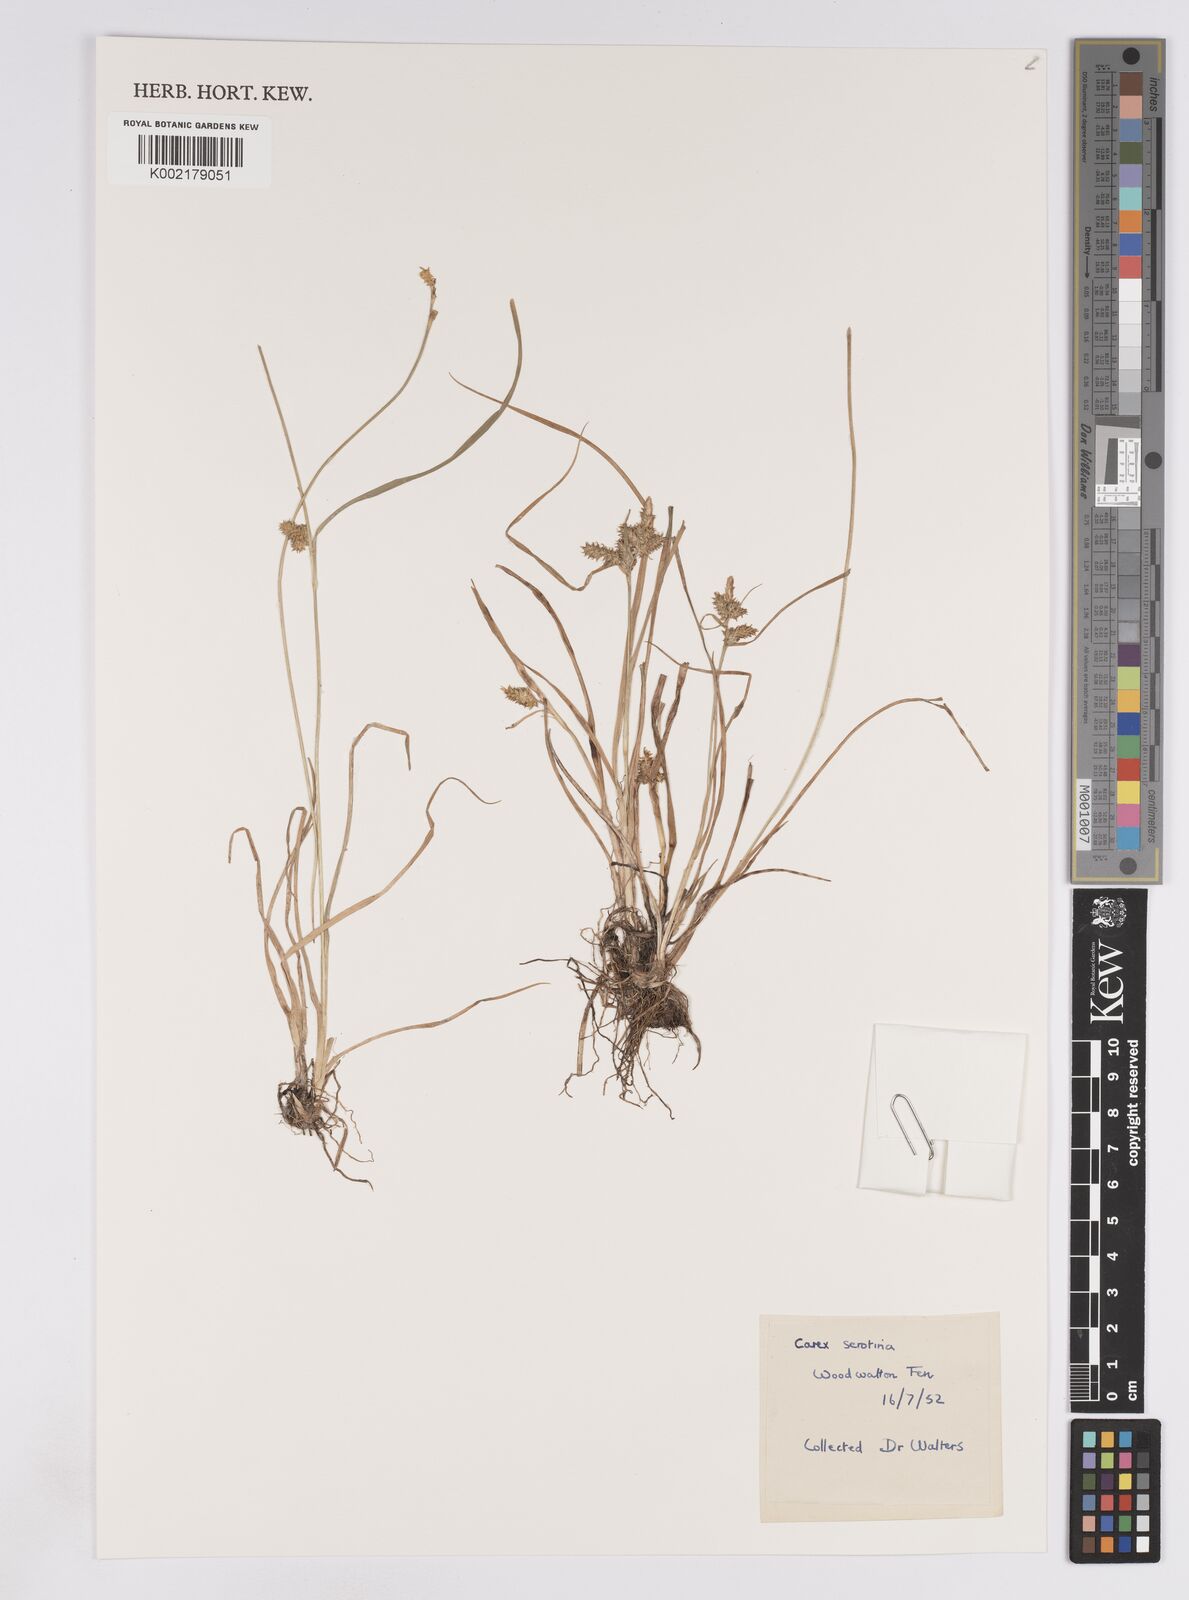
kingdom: Plantae
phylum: Tracheophyta
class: Liliopsida
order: Poales
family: Cyperaceae
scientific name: Cyperaceae
